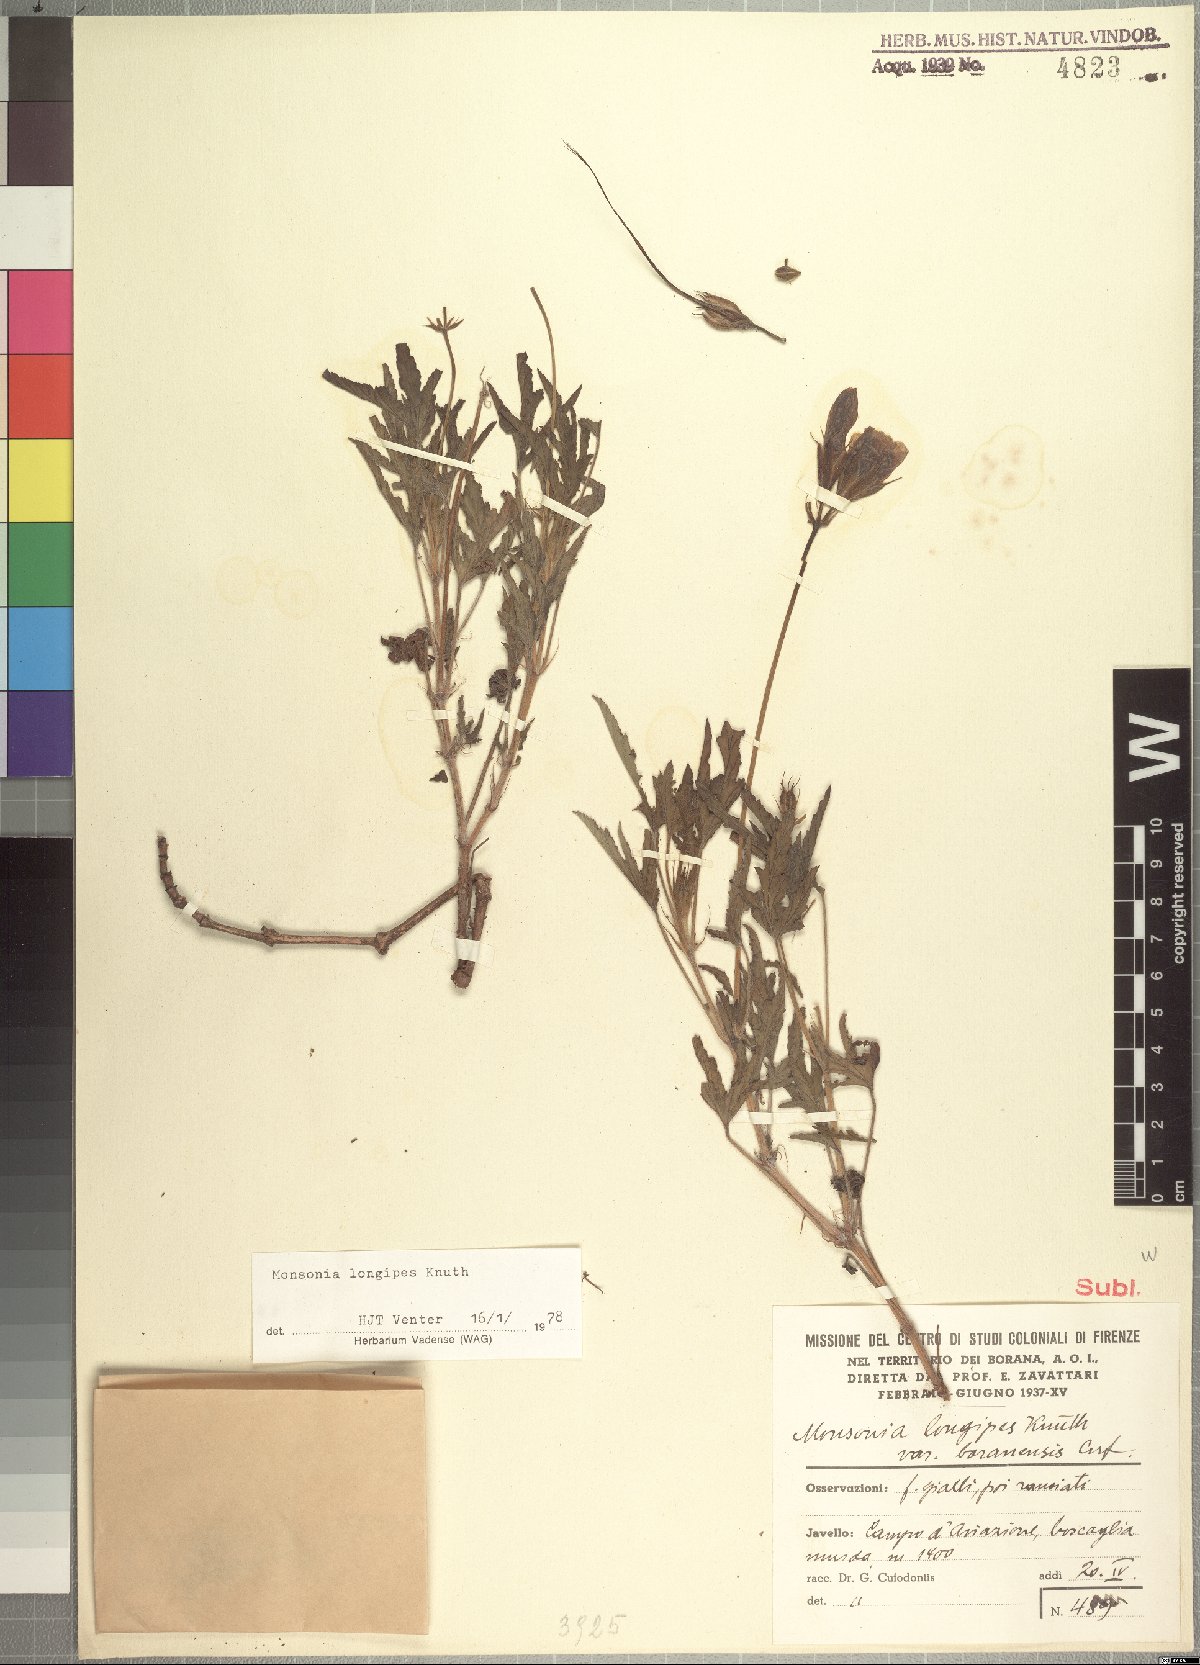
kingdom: Plantae
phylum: Tracheophyta
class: Magnoliopsida
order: Geraniales
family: Geraniaceae
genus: Monsonia
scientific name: Monsonia longipes
